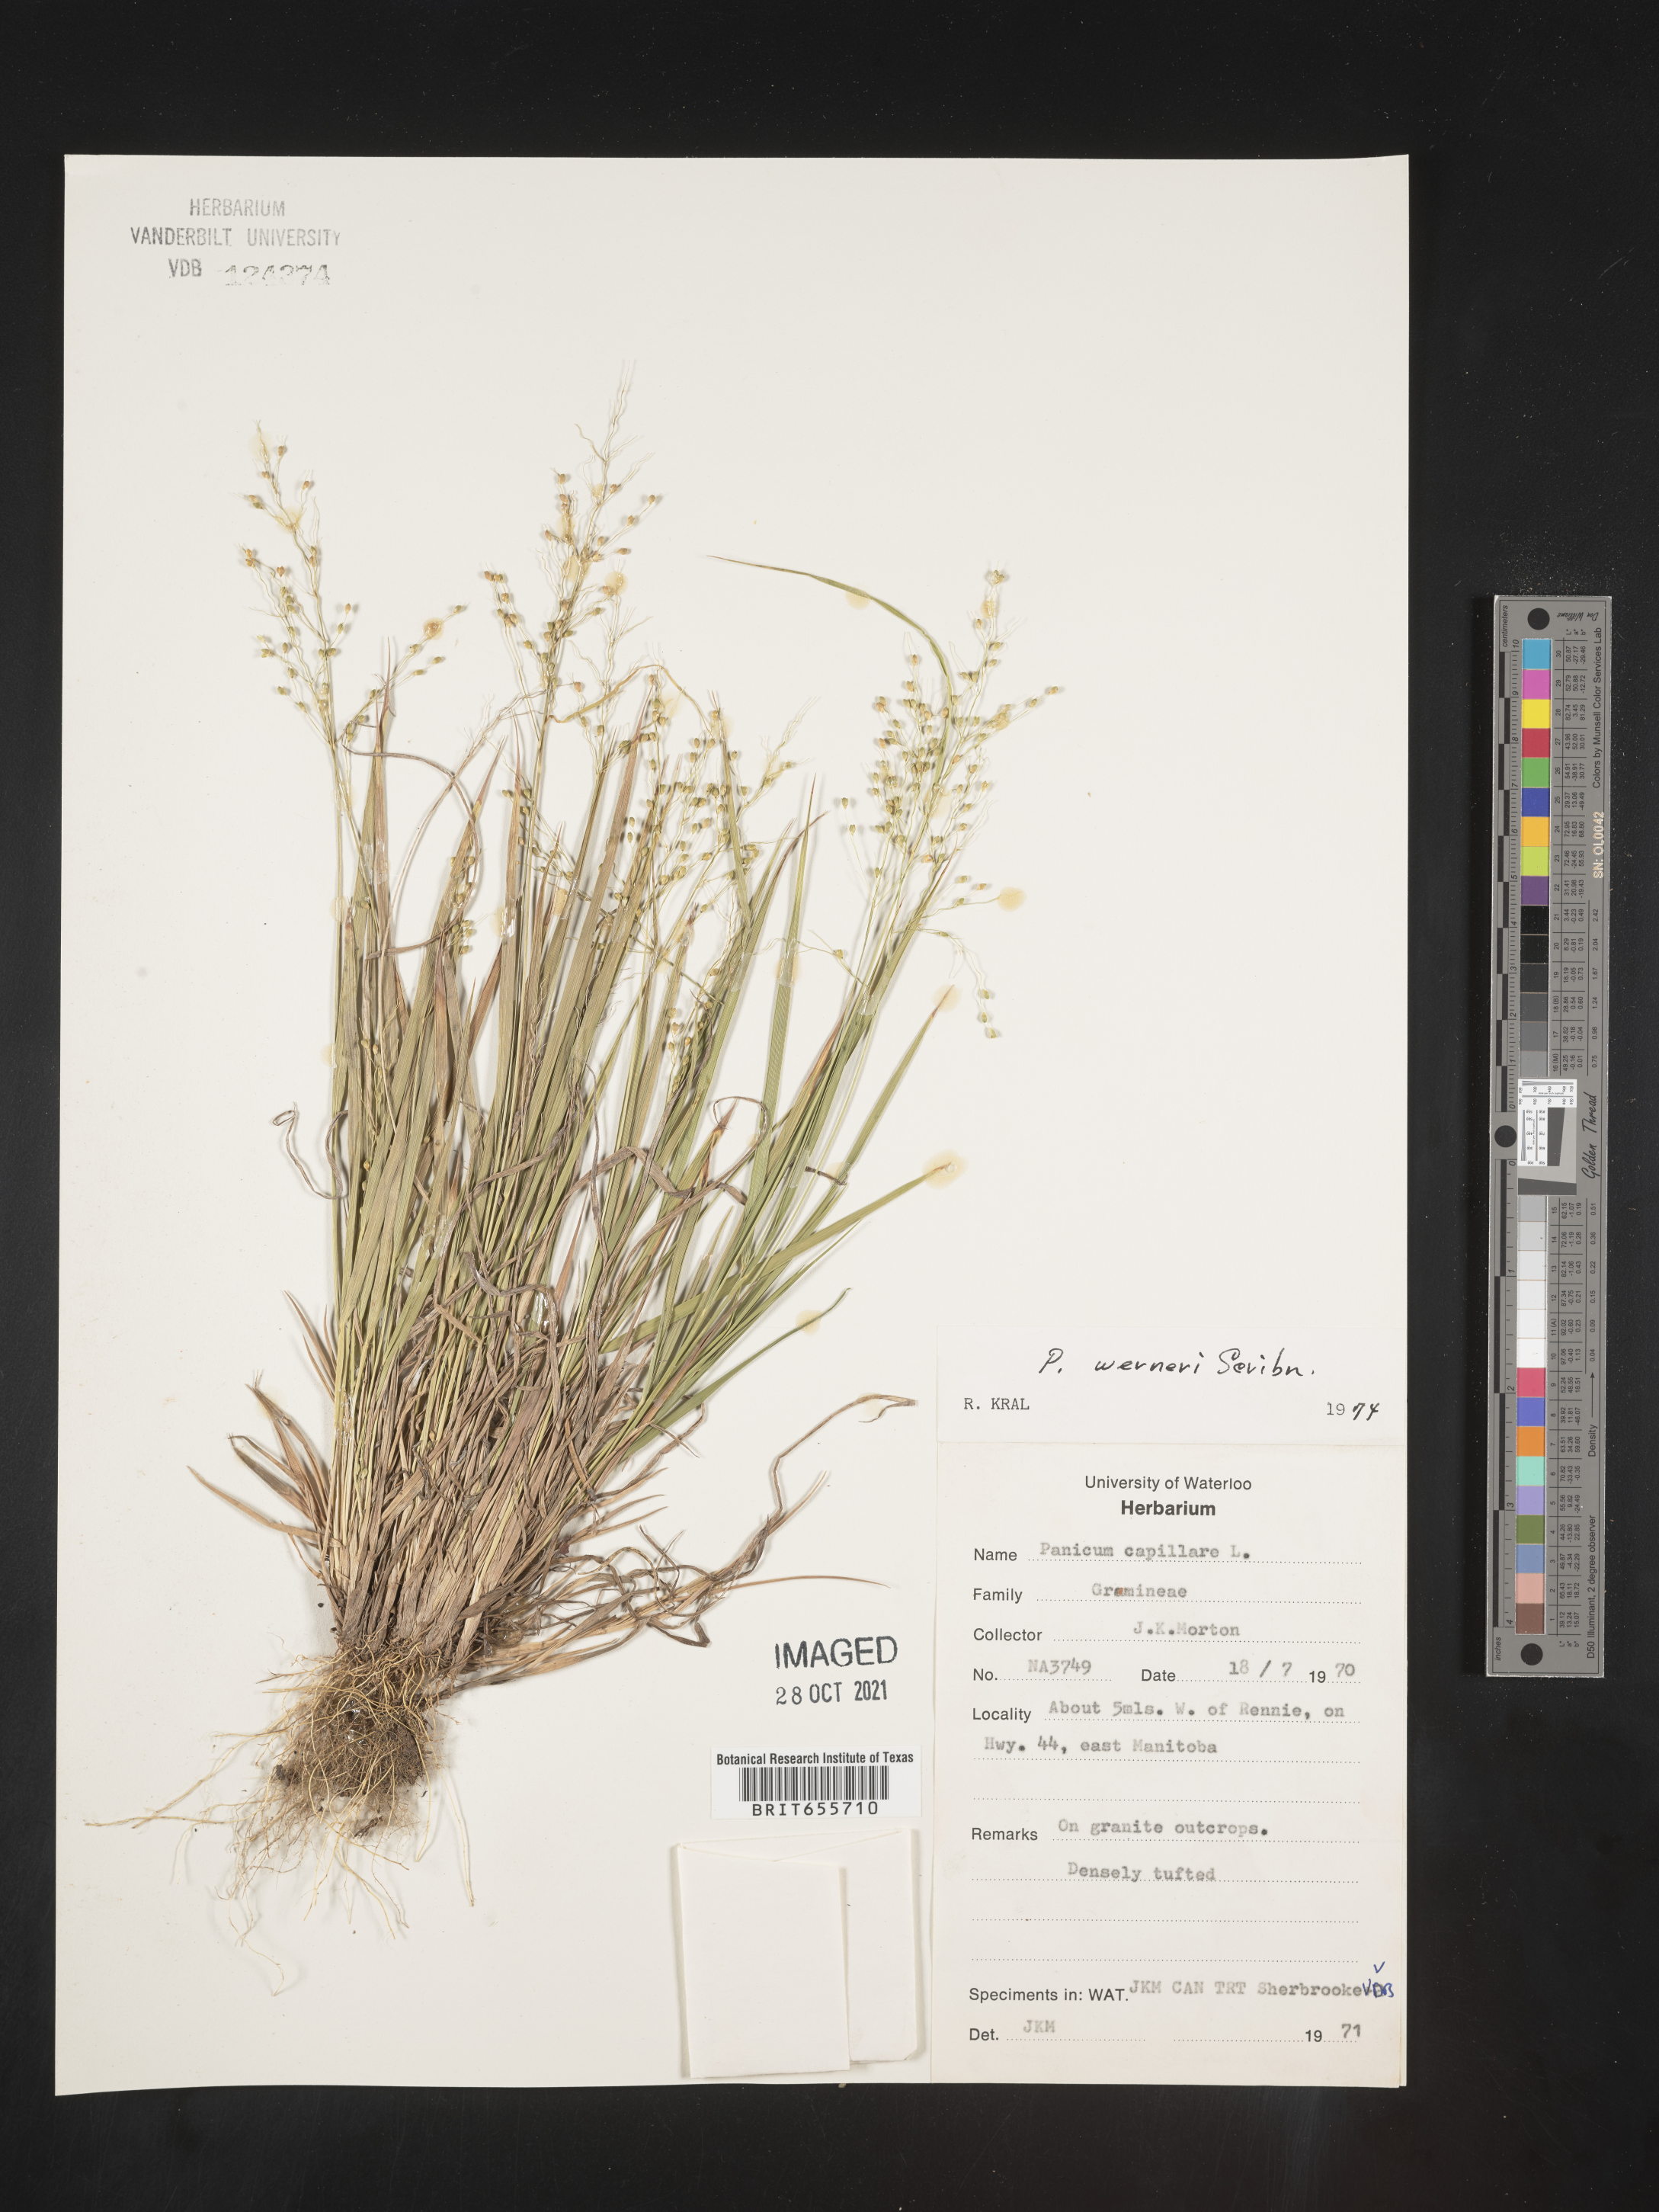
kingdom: Plantae
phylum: Tracheophyta
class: Liliopsida
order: Poales
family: Poaceae
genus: Panicum
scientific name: Panicum
